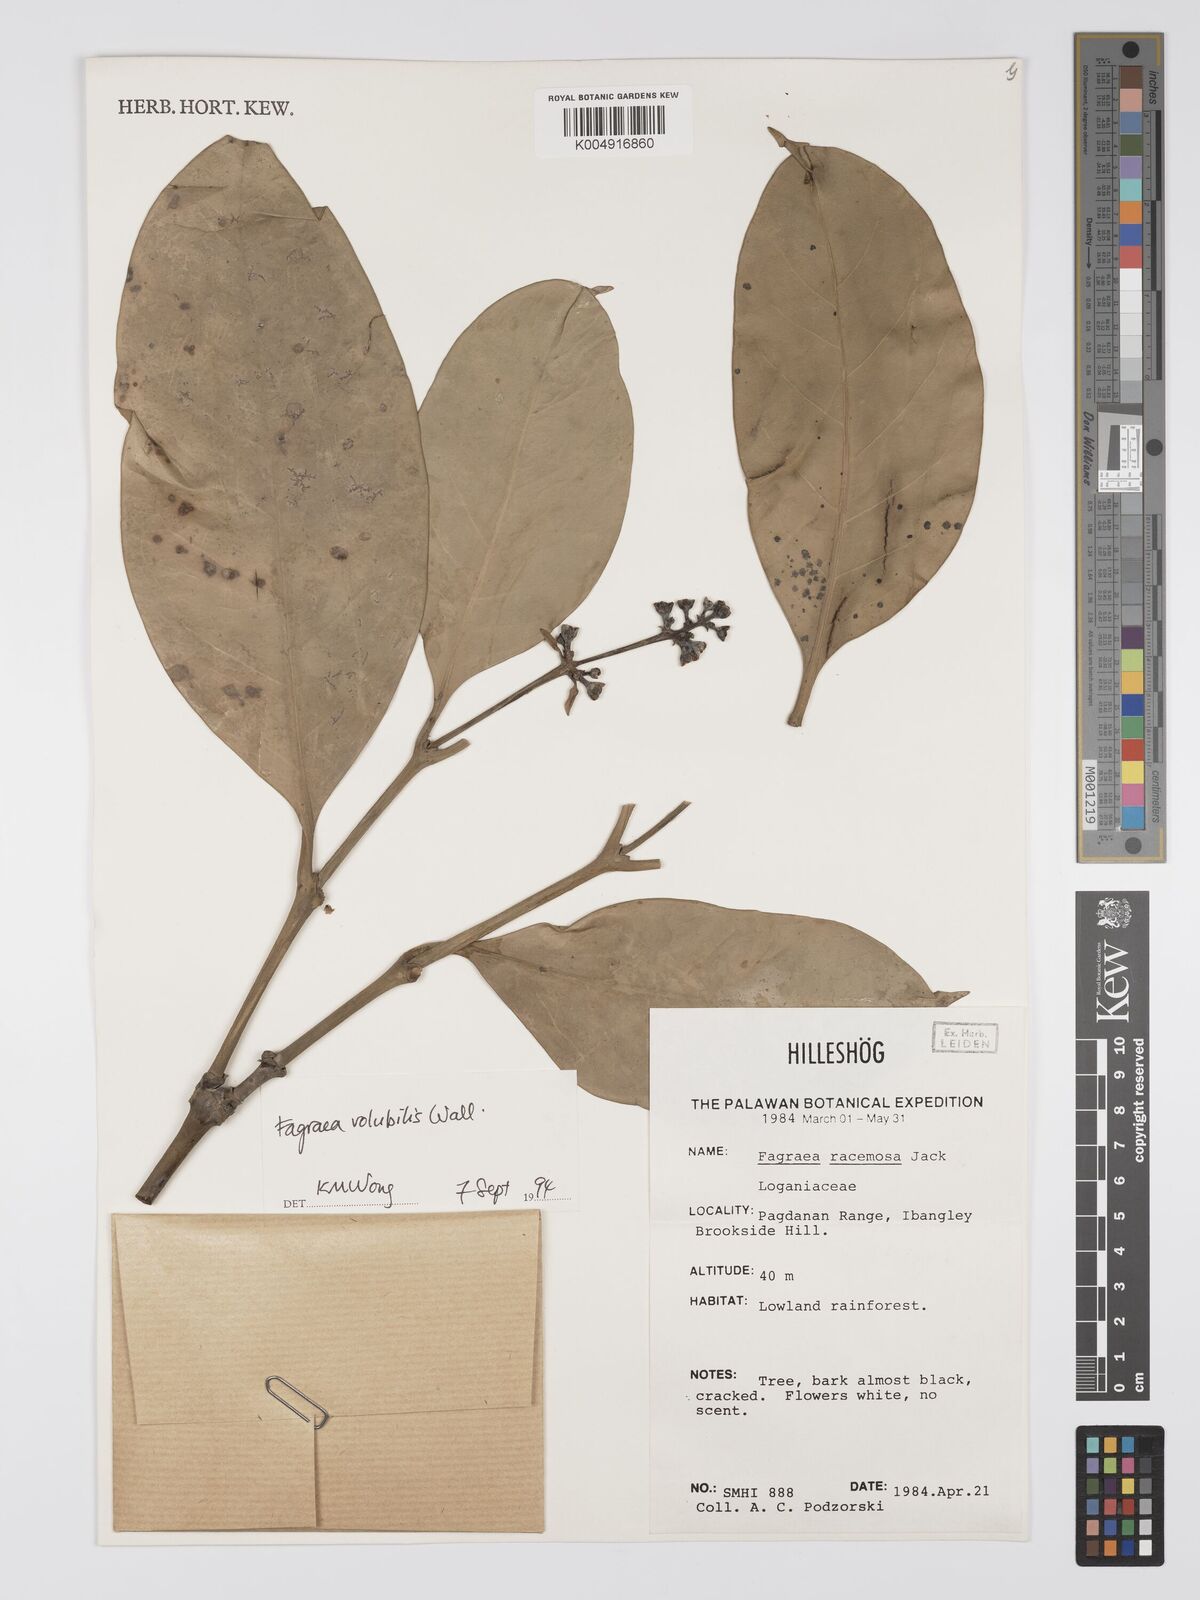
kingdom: Plantae
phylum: Tracheophyta
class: Magnoliopsida
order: Gentianales
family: Gentianaceae
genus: Utania
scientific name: Utania racemosa
